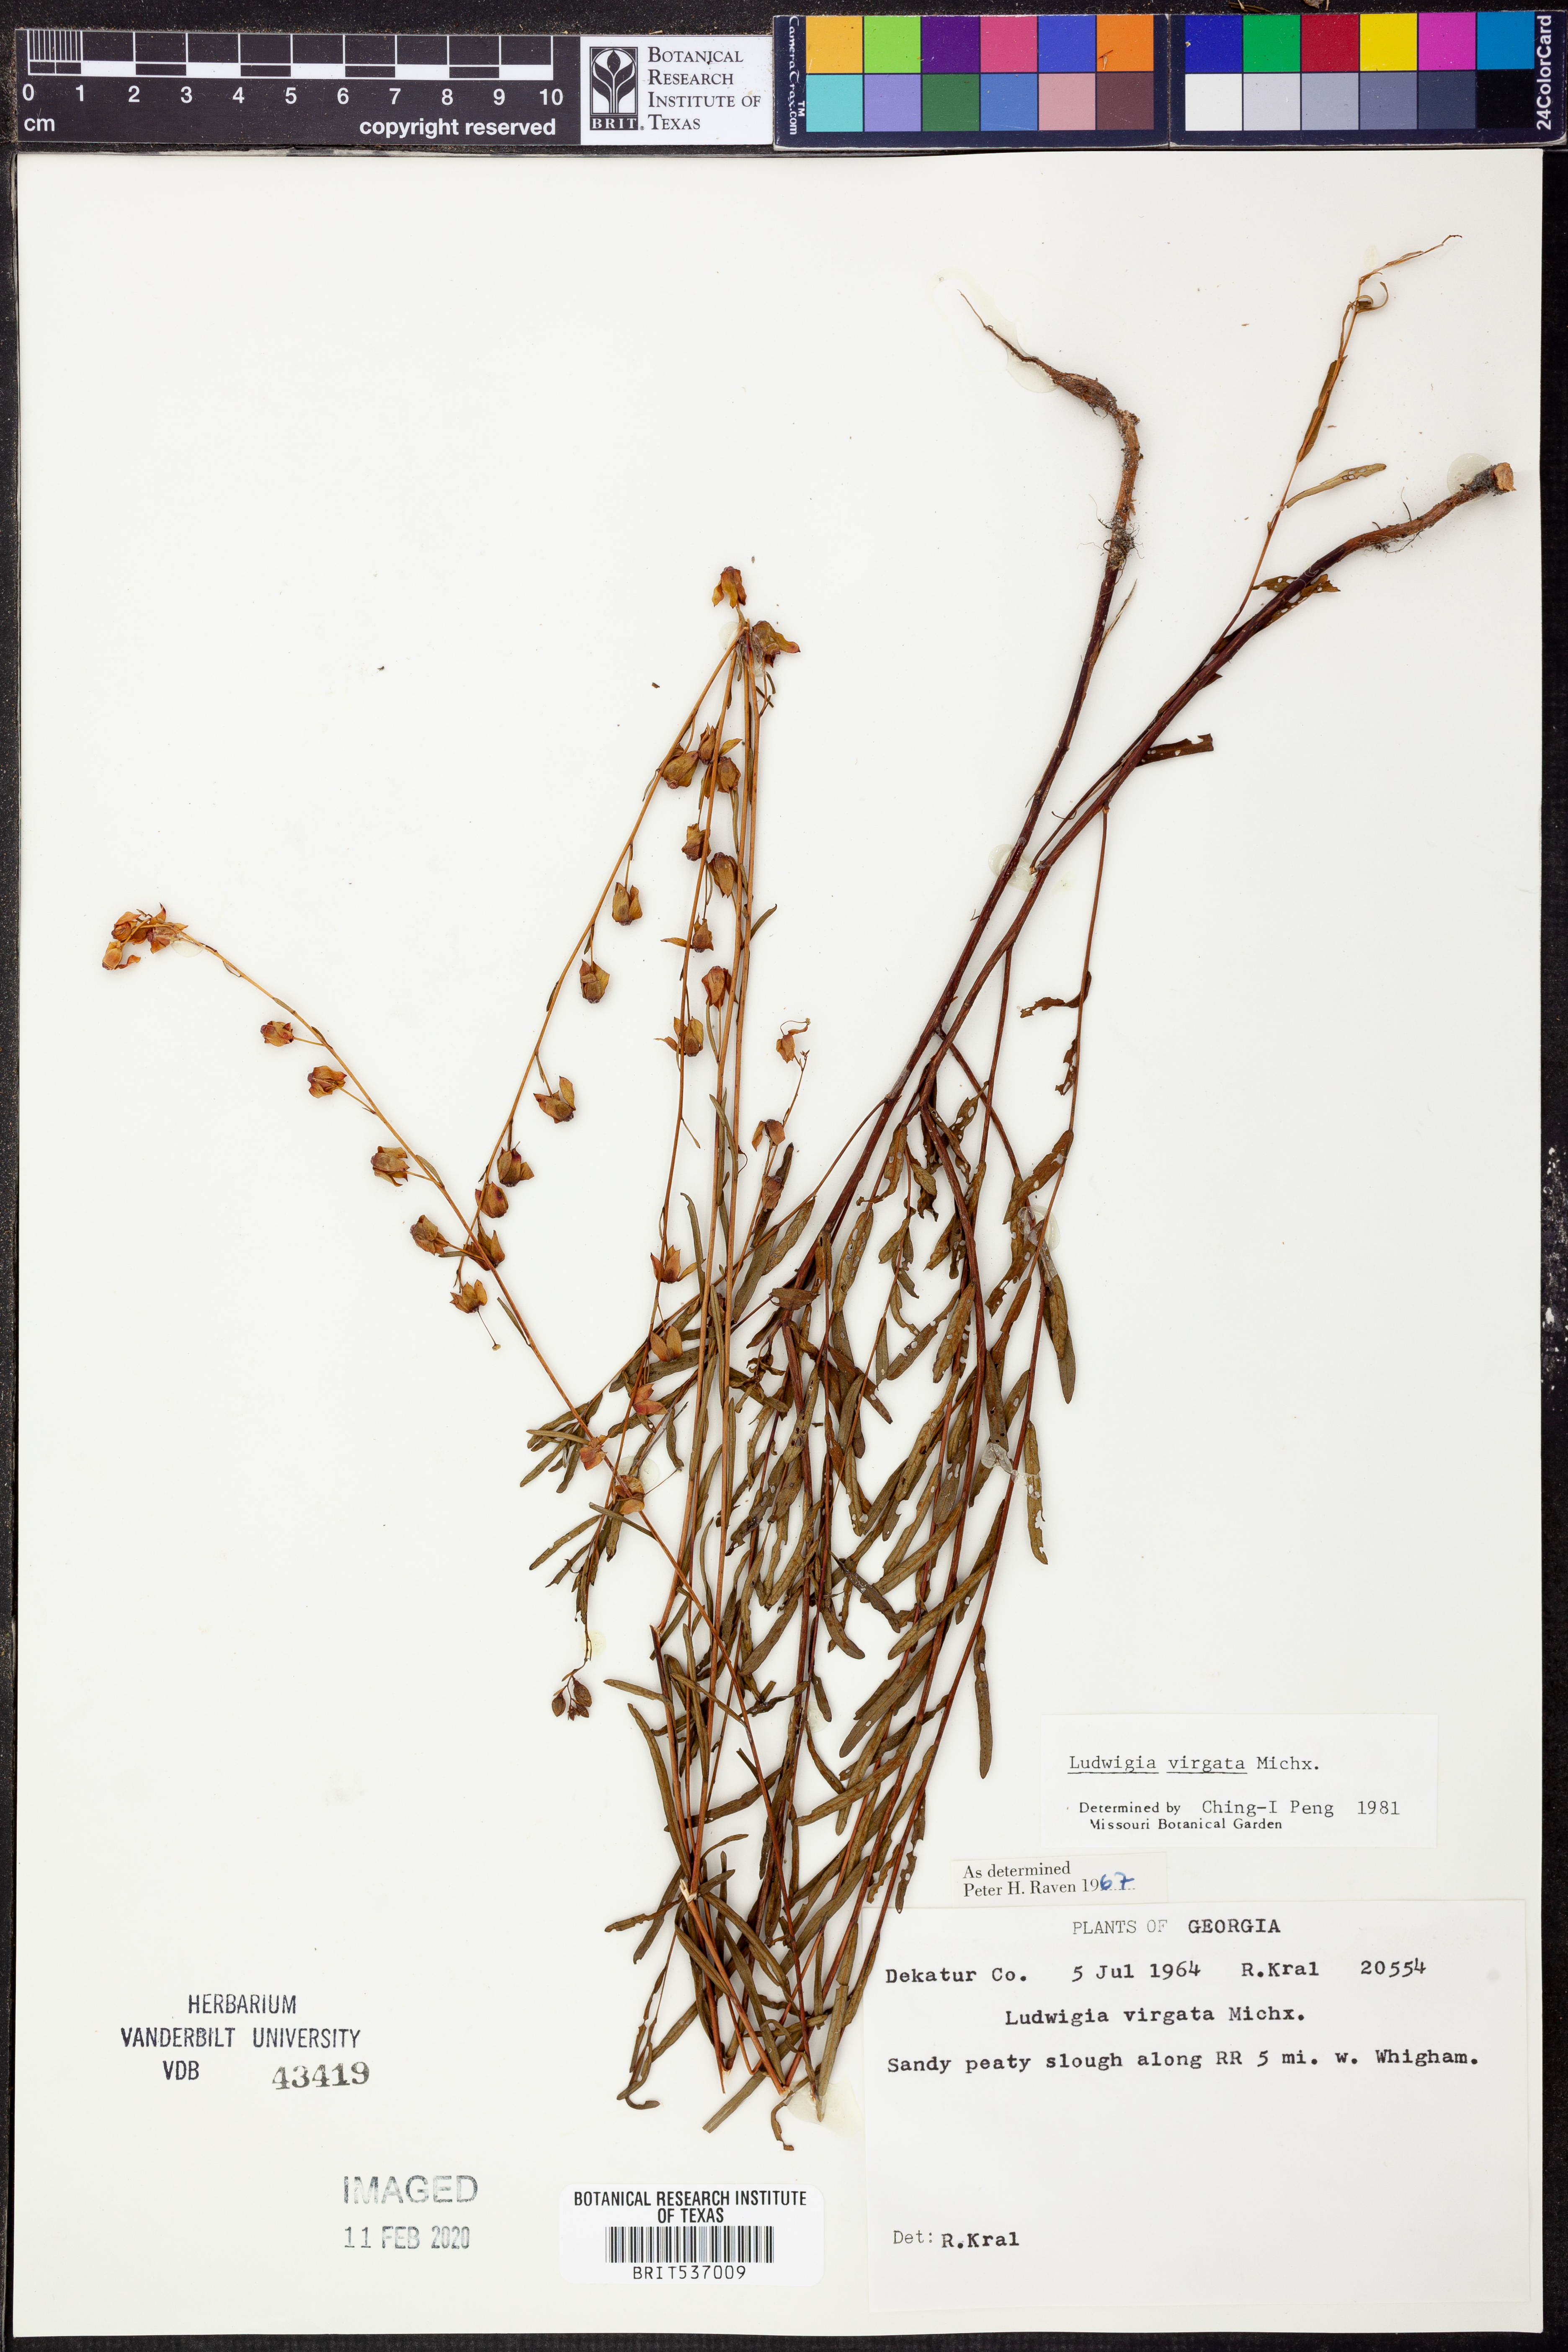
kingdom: Plantae
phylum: Tracheophyta
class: Magnoliopsida
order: Myrtales
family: Onagraceae
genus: Ludwigia
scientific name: Ludwigia virgata
